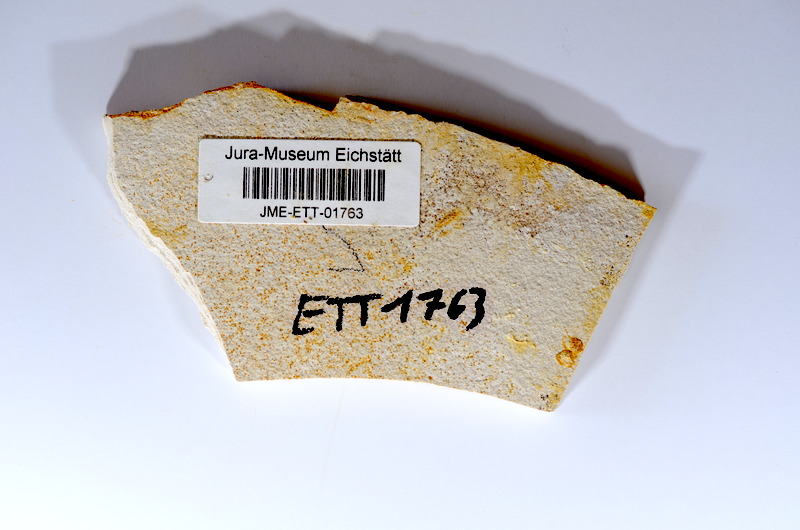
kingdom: Animalia
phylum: Chordata
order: Salmoniformes
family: Orthogonikleithridae
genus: Orthogonikleithrus
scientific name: Orthogonikleithrus hoelli
